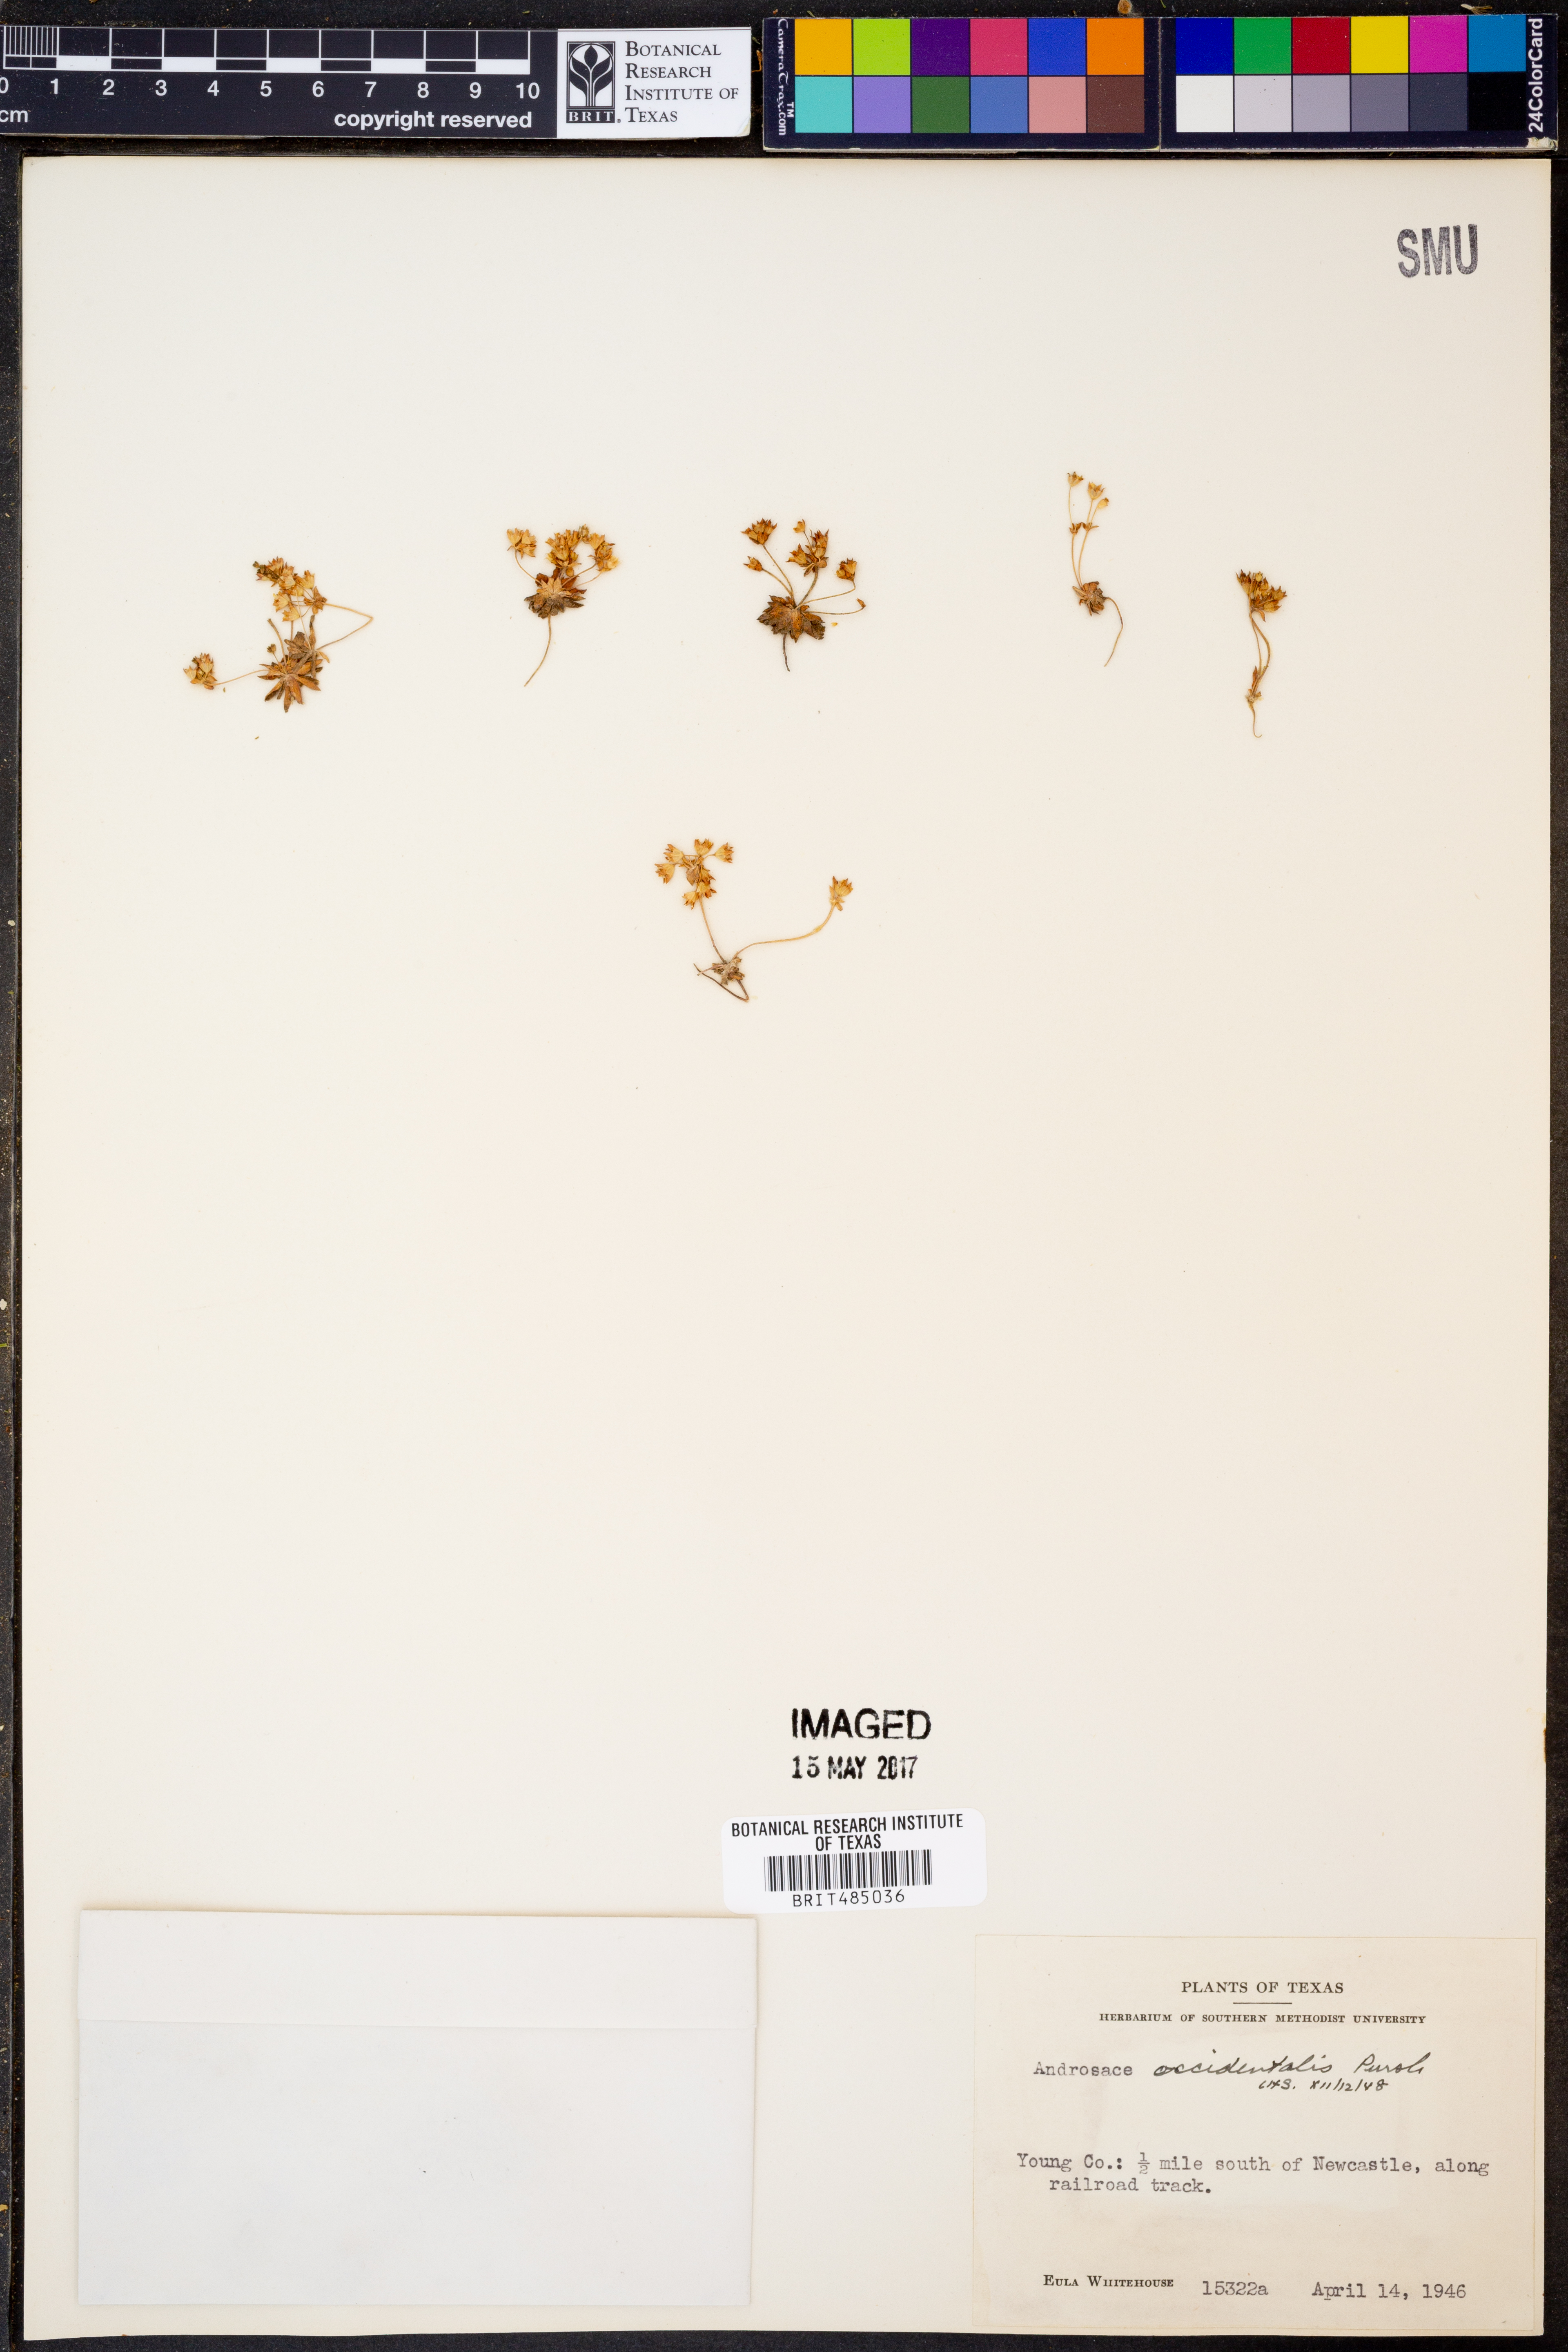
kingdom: Plantae
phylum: Tracheophyta
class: Magnoliopsida
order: Ericales
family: Primulaceae
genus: Androsace
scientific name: Androsace occidentalis
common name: West rock-jasmine
